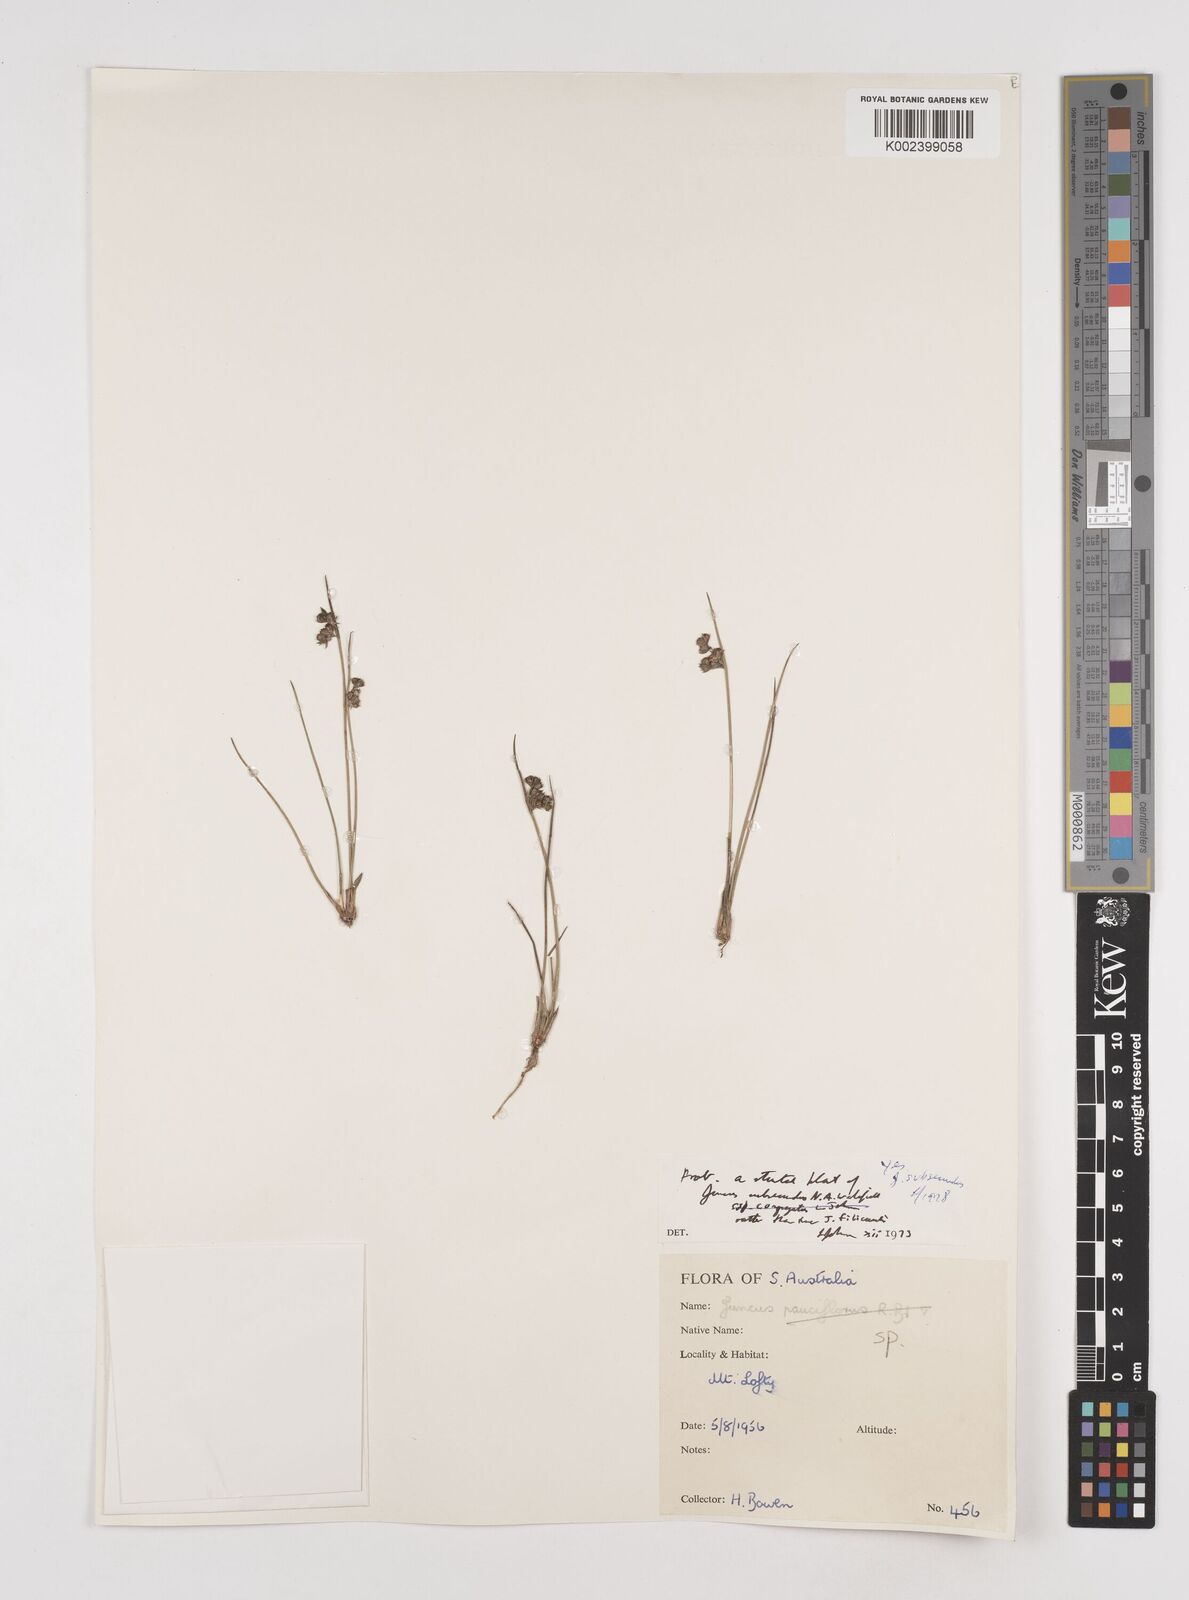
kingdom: Plantae
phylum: Tracheophyta
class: Liliopsida
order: Poales
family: Juncaceae
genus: Juncus
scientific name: Juncus subsecundus
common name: Fingered rush
